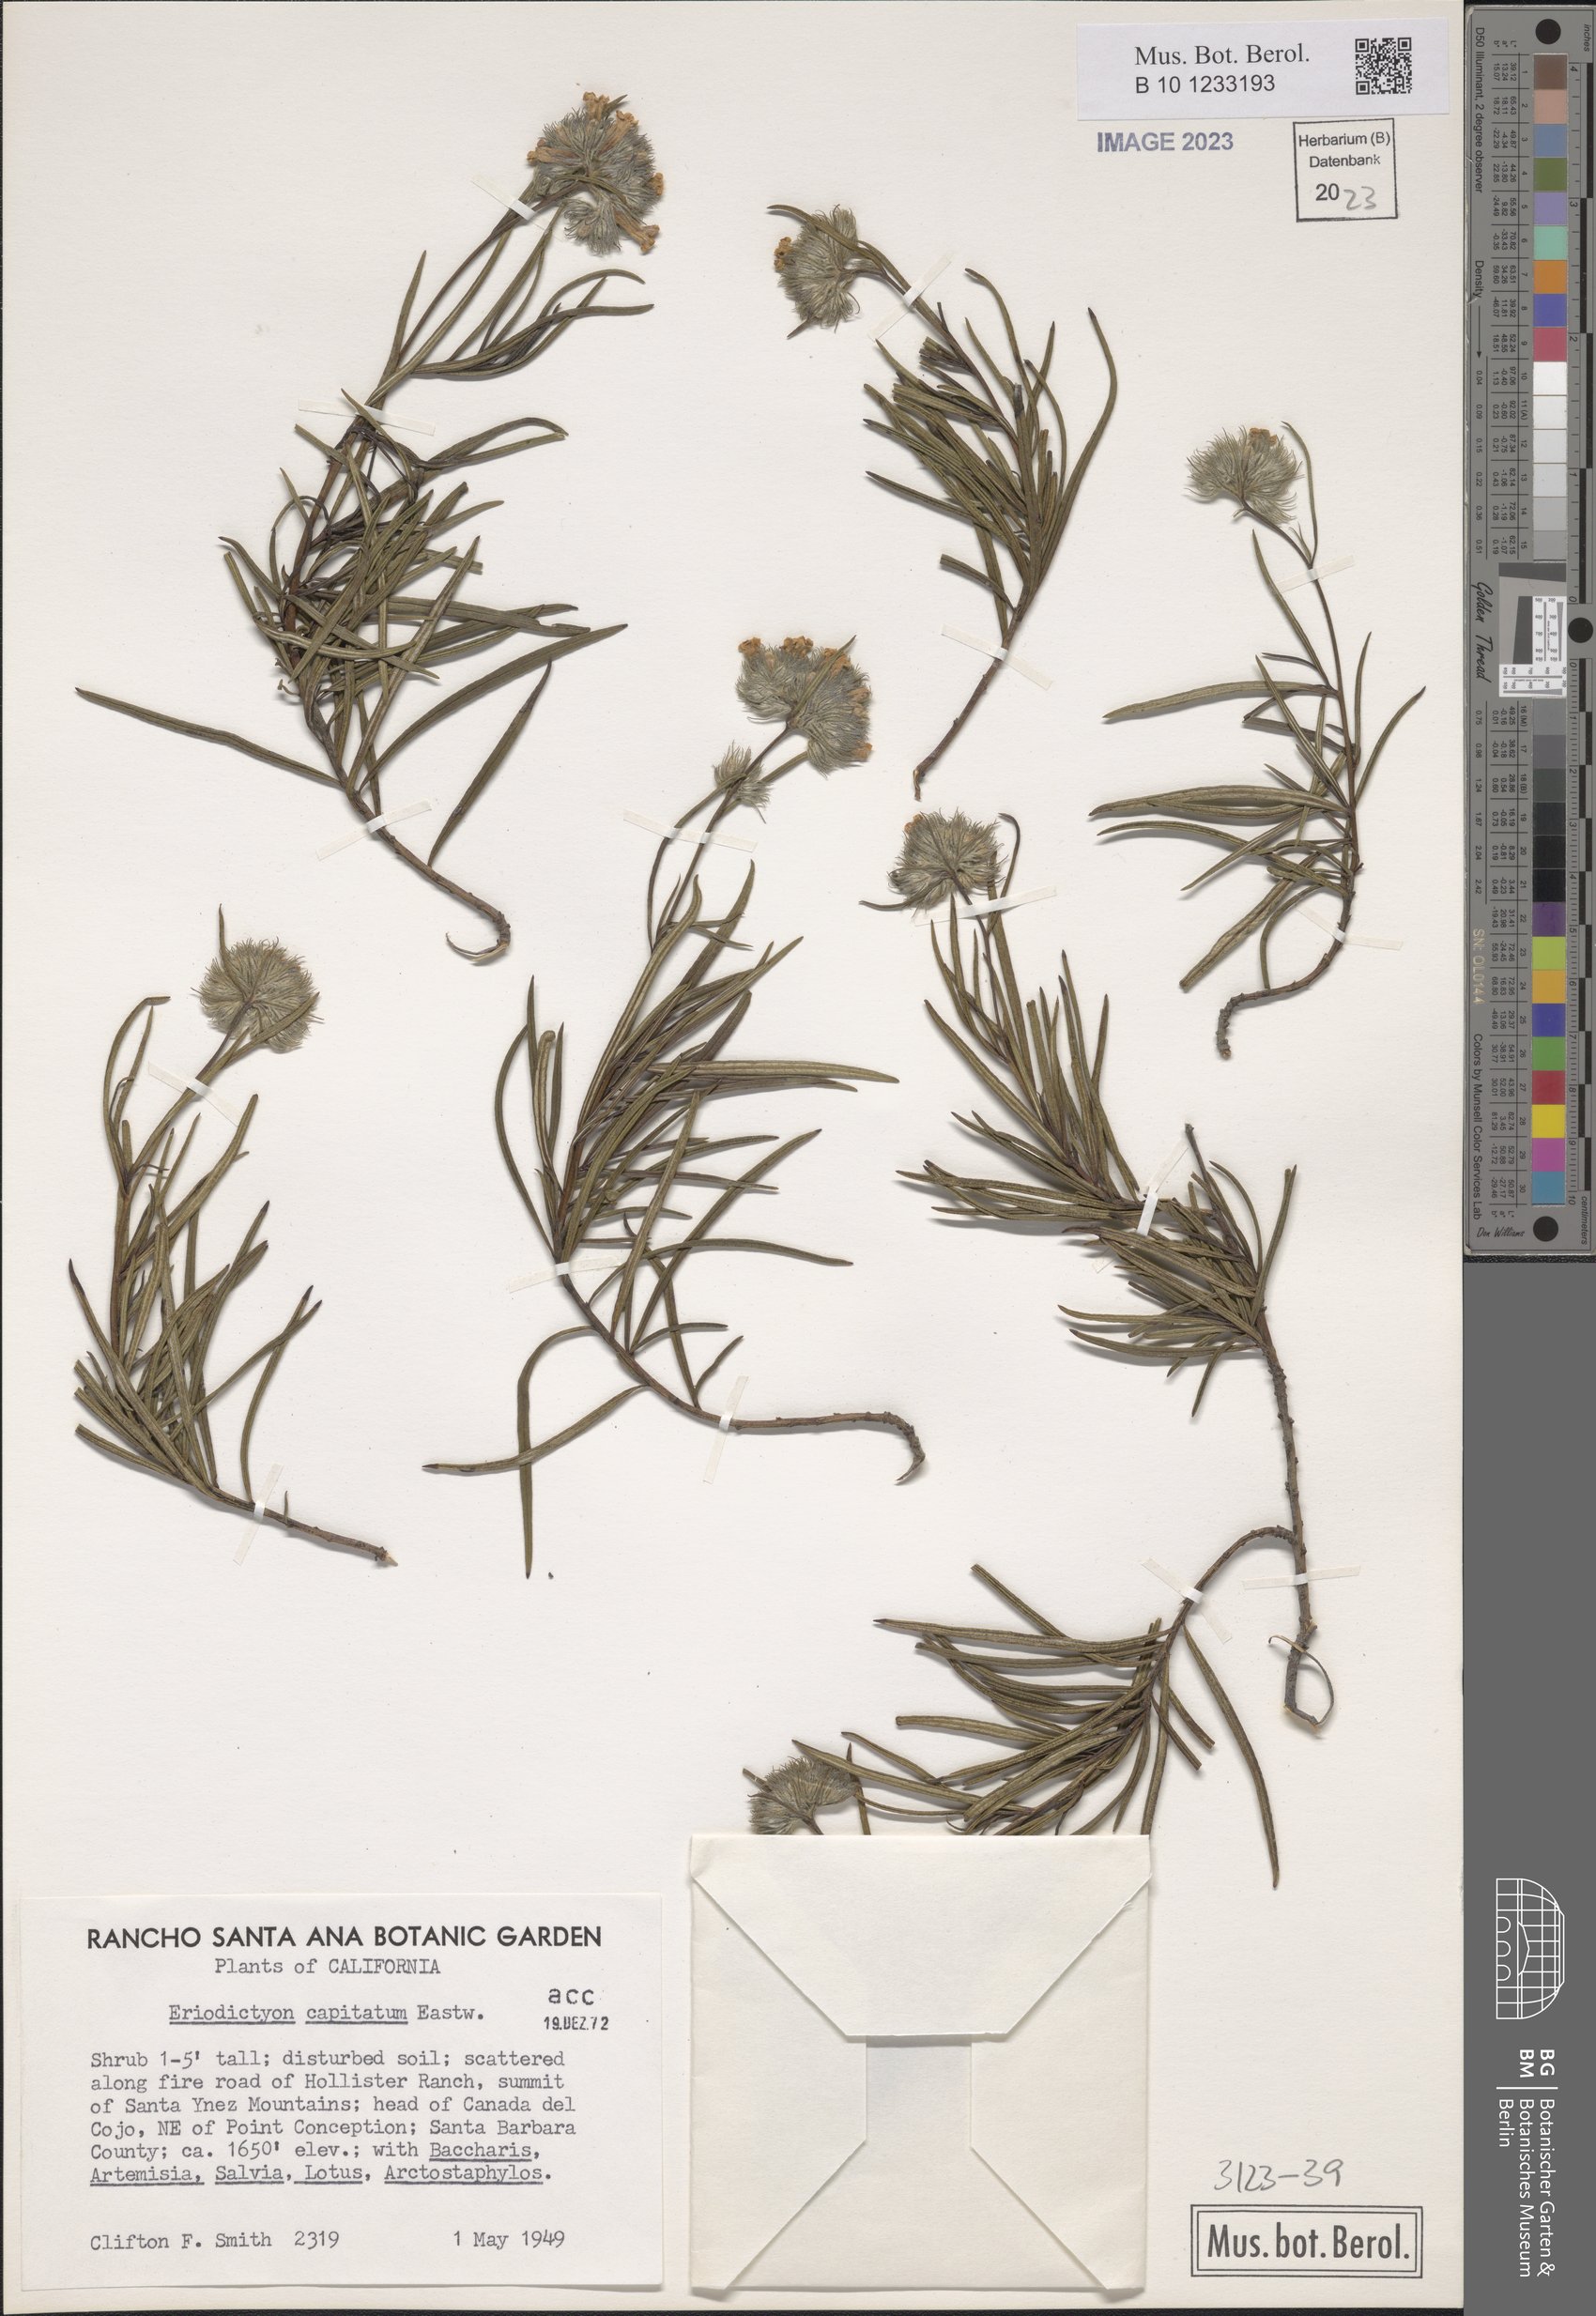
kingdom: Plantae
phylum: Tracheophyta
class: Magnoliopsida
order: Boraginales
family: Namaceae
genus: Eriodictyon
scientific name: Eriodictyon capitatum
